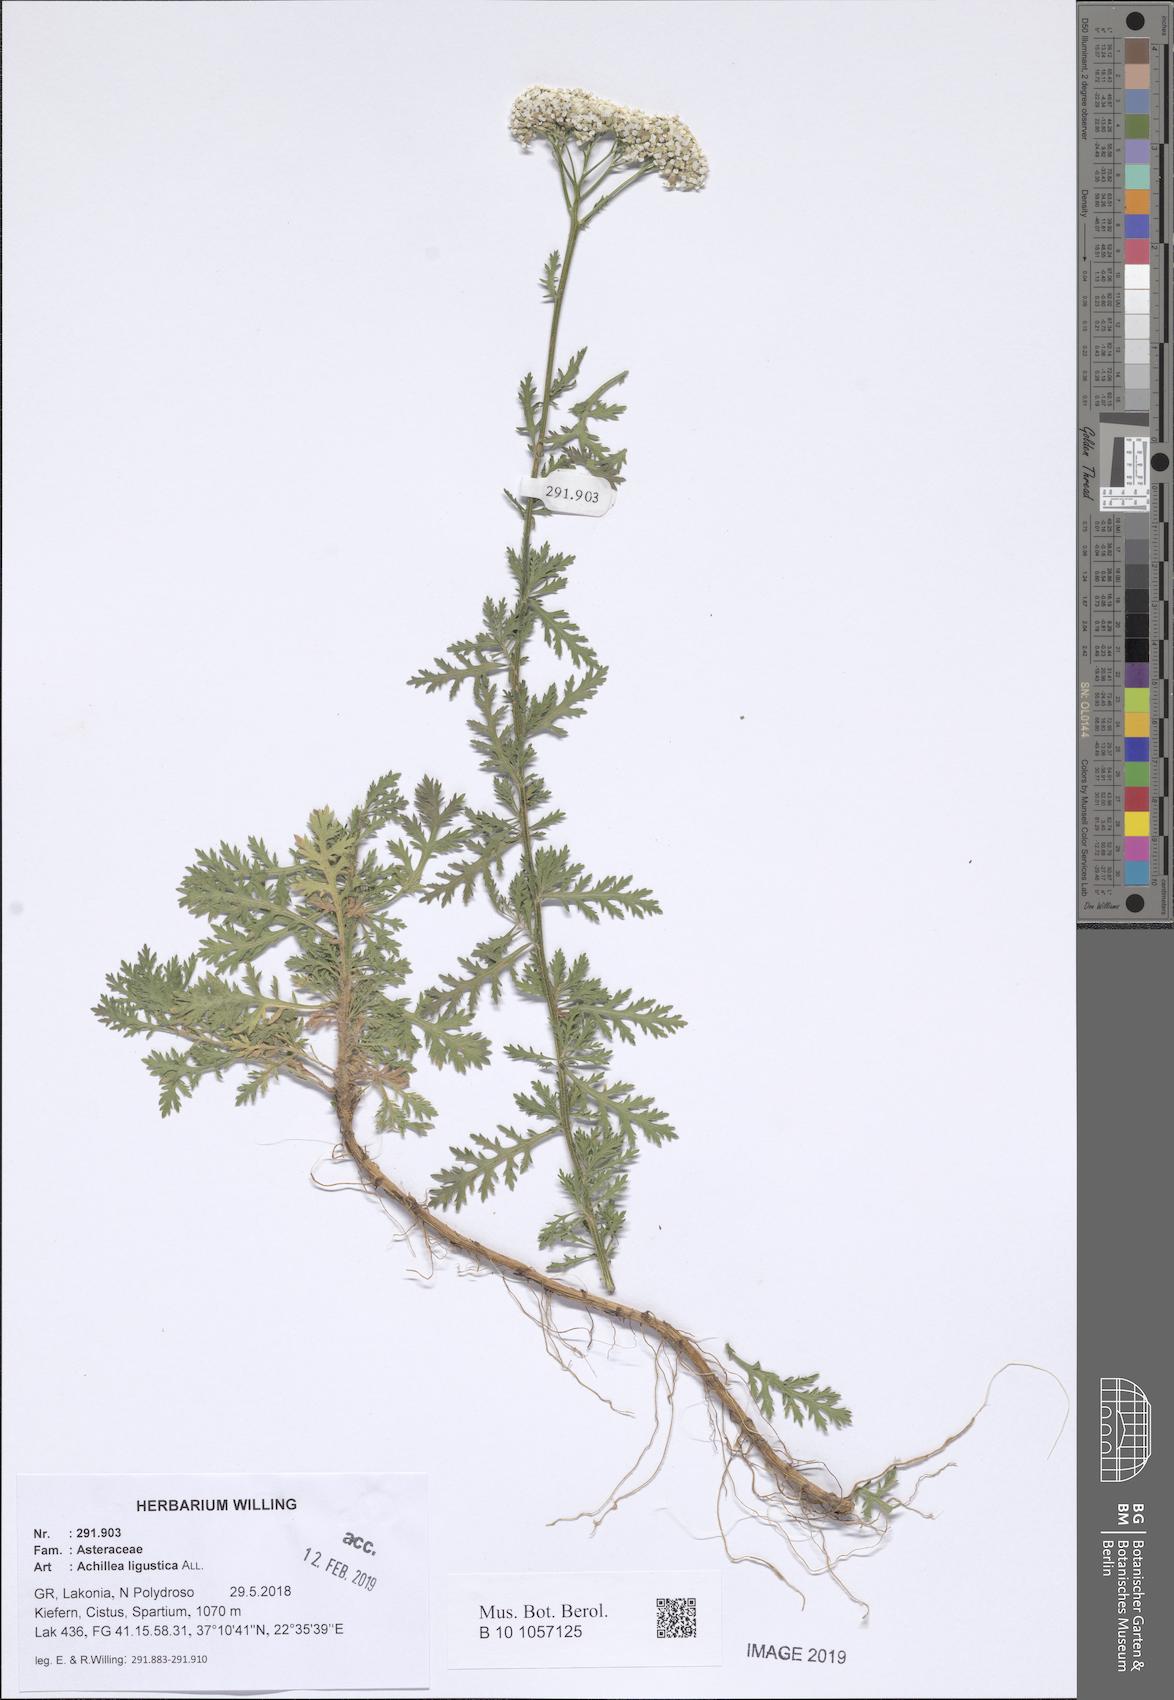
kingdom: Plantae
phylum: Tracheophyta
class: Magnoliopsida
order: Asterales
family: Asteraceae
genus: Achillea
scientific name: Achillea ligustica
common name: Southern yarrow
